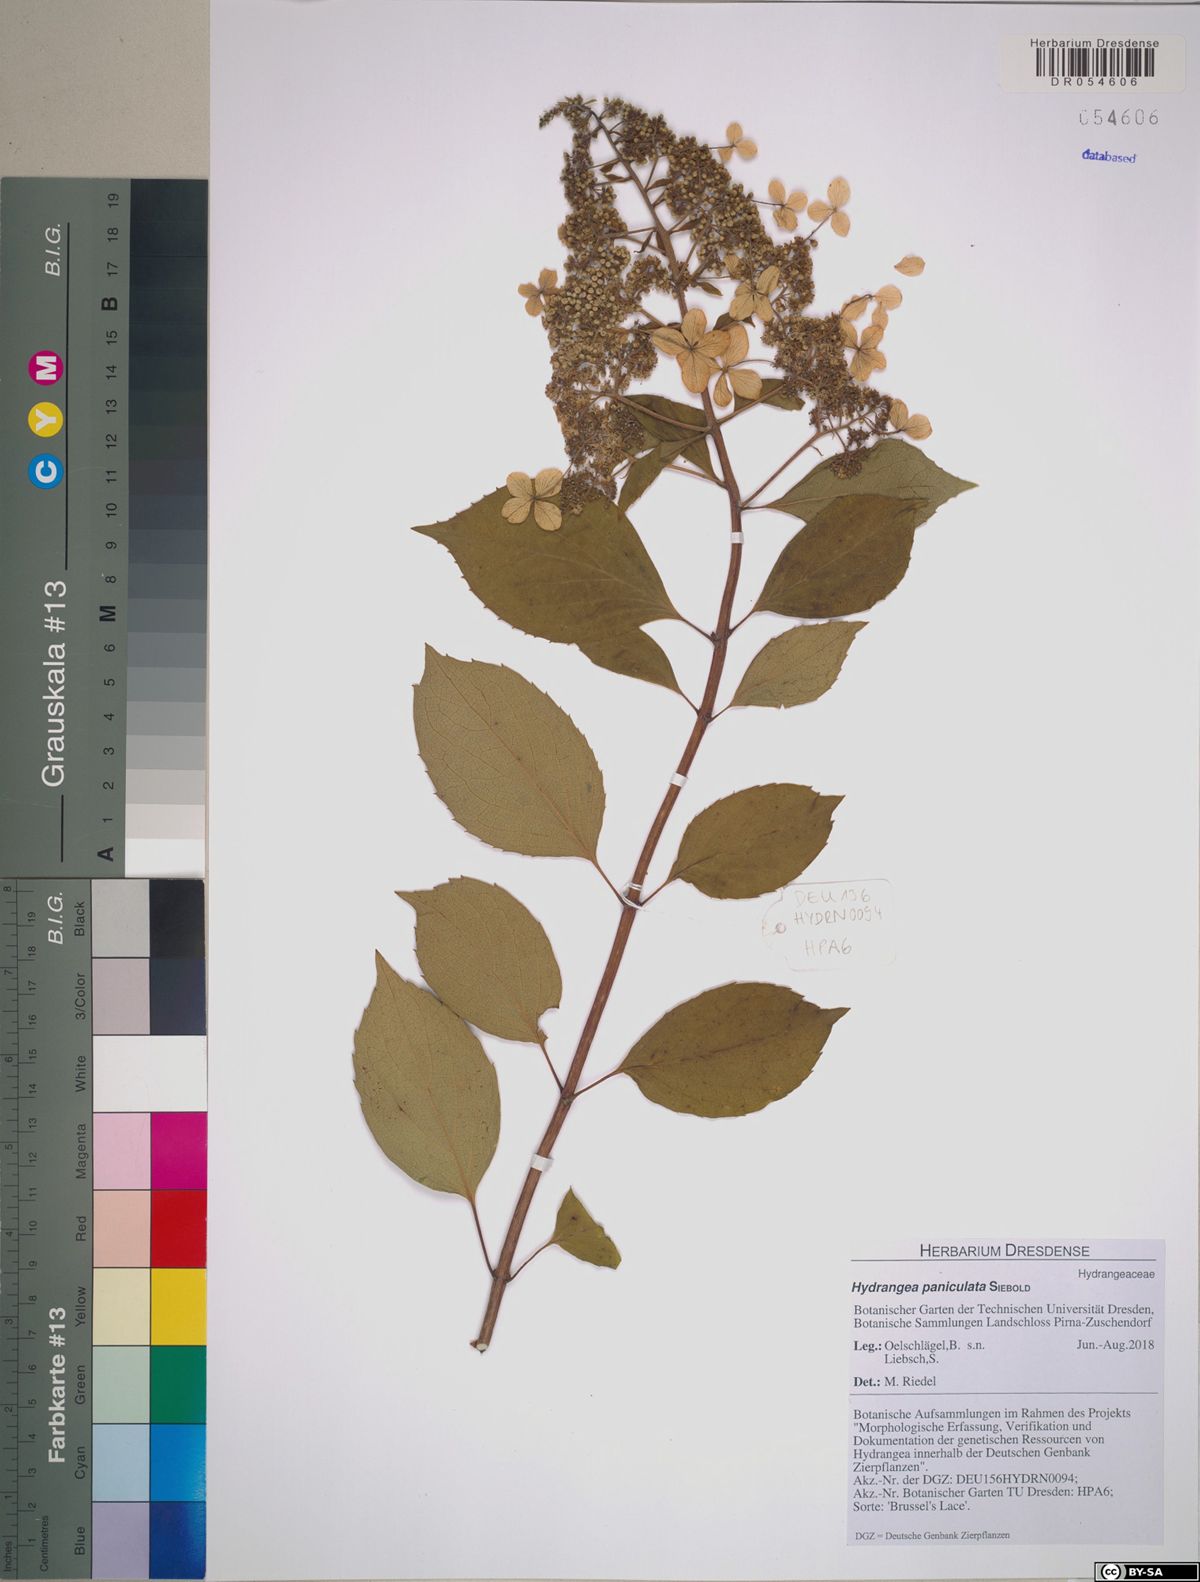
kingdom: Plantae
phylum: Tracheophyta
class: Magnoliopsida
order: Cornales
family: Hydrangeaceae
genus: Hydrangea
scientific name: Hydrangea paniculata
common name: Panicled hydrangea
